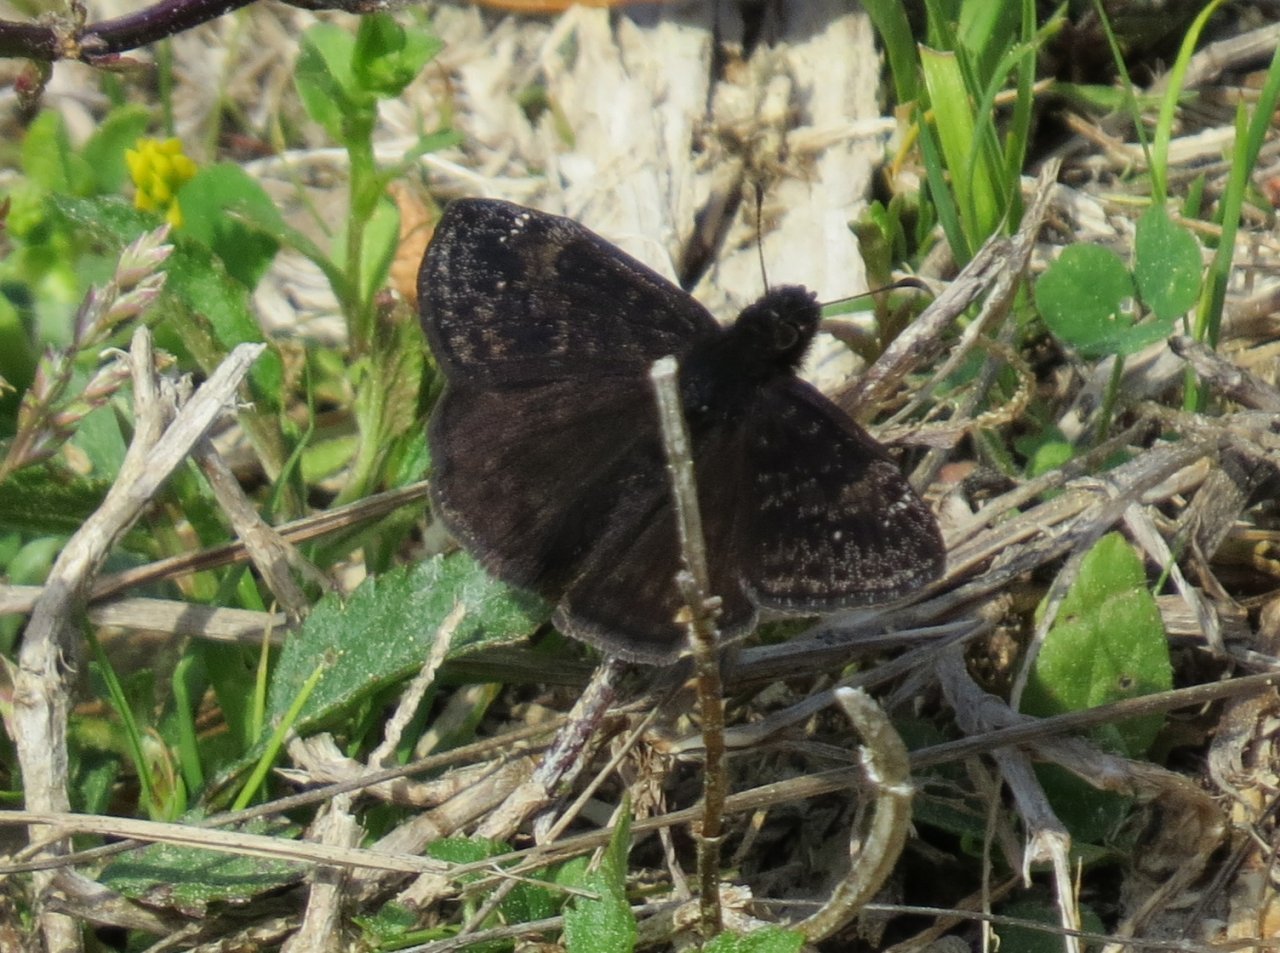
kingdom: Animalia
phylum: Arthropoda
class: Insecta
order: Lepidoptera
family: Hesperiidae
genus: Erynnis
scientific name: Erynnis zarucco
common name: Zarucco Duskywing
